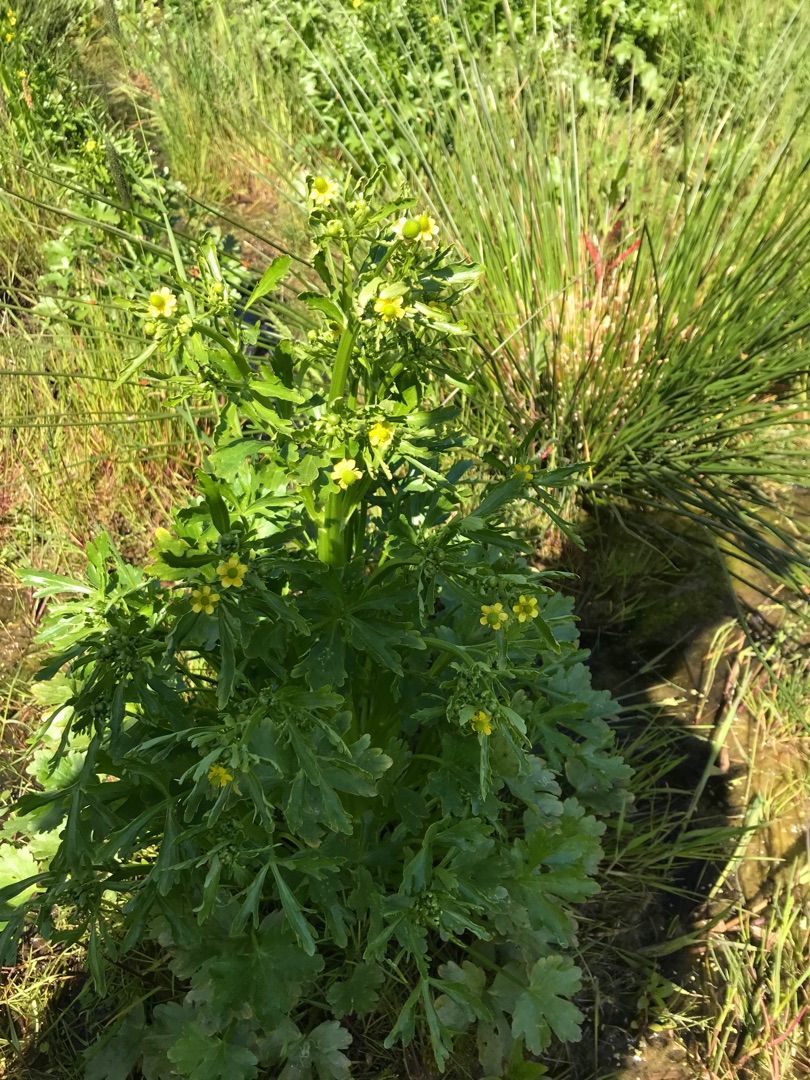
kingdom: Plantae
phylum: Tracheophyta
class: Magnoliopsida
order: Ranunculales
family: Ranunculaceae
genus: Ranunculus
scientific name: Ranunculus sceleratus
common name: Tigger-ranunkel
